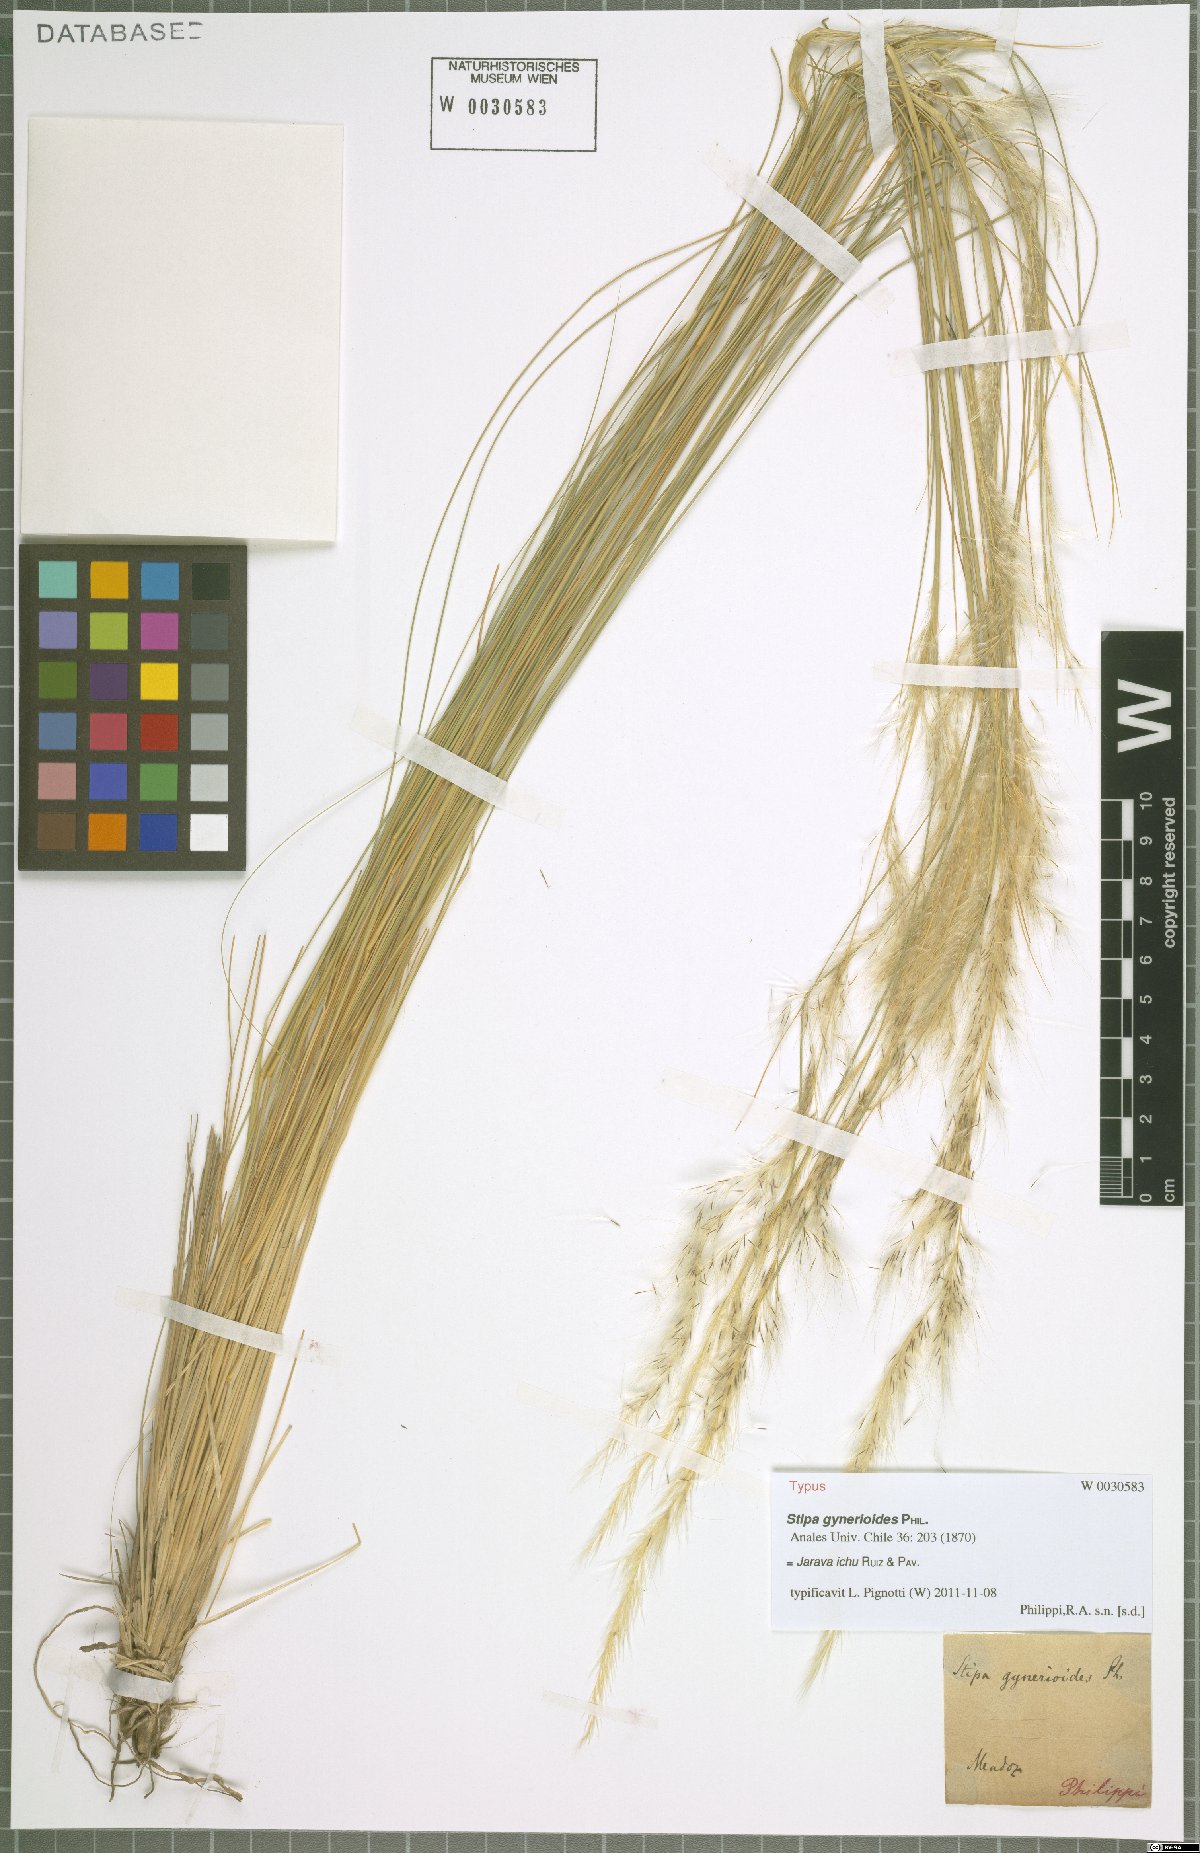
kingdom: Plantae
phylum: Tracheophyta
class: Liliopsida
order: Poales
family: Poaceae
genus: Jarava
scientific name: Jarava ichu
